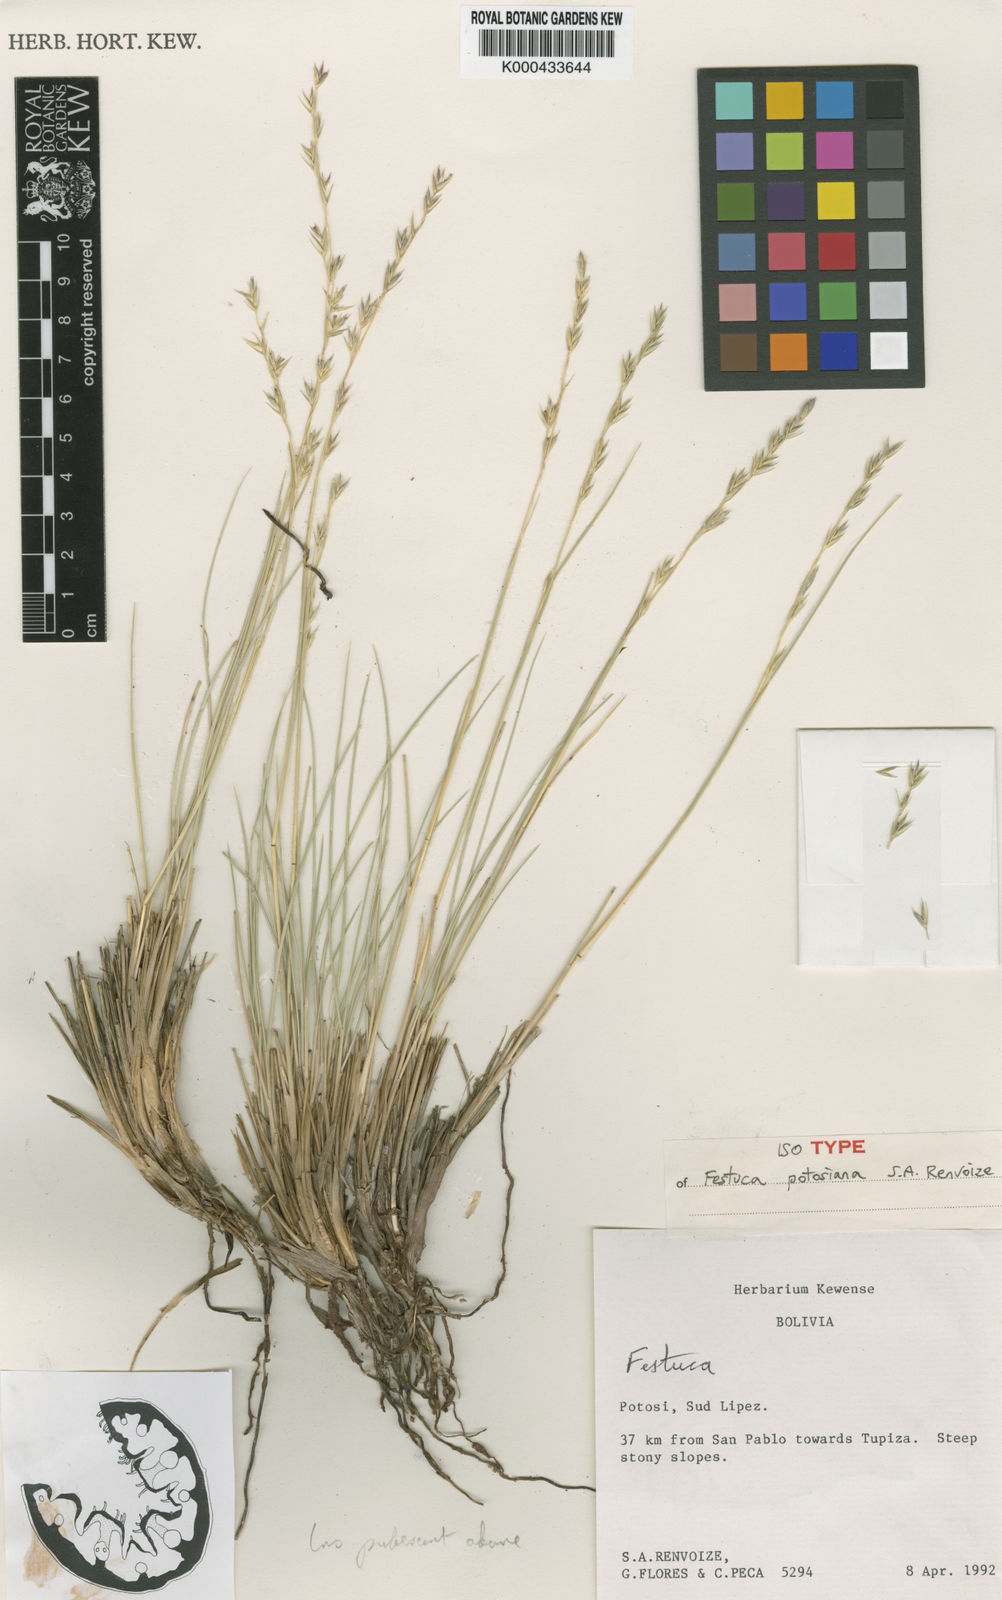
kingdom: Plantae
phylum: Tracheophyta
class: Liliopsida
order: Poales
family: Poaceae
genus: Festuca
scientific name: Festuca dissitiflora
